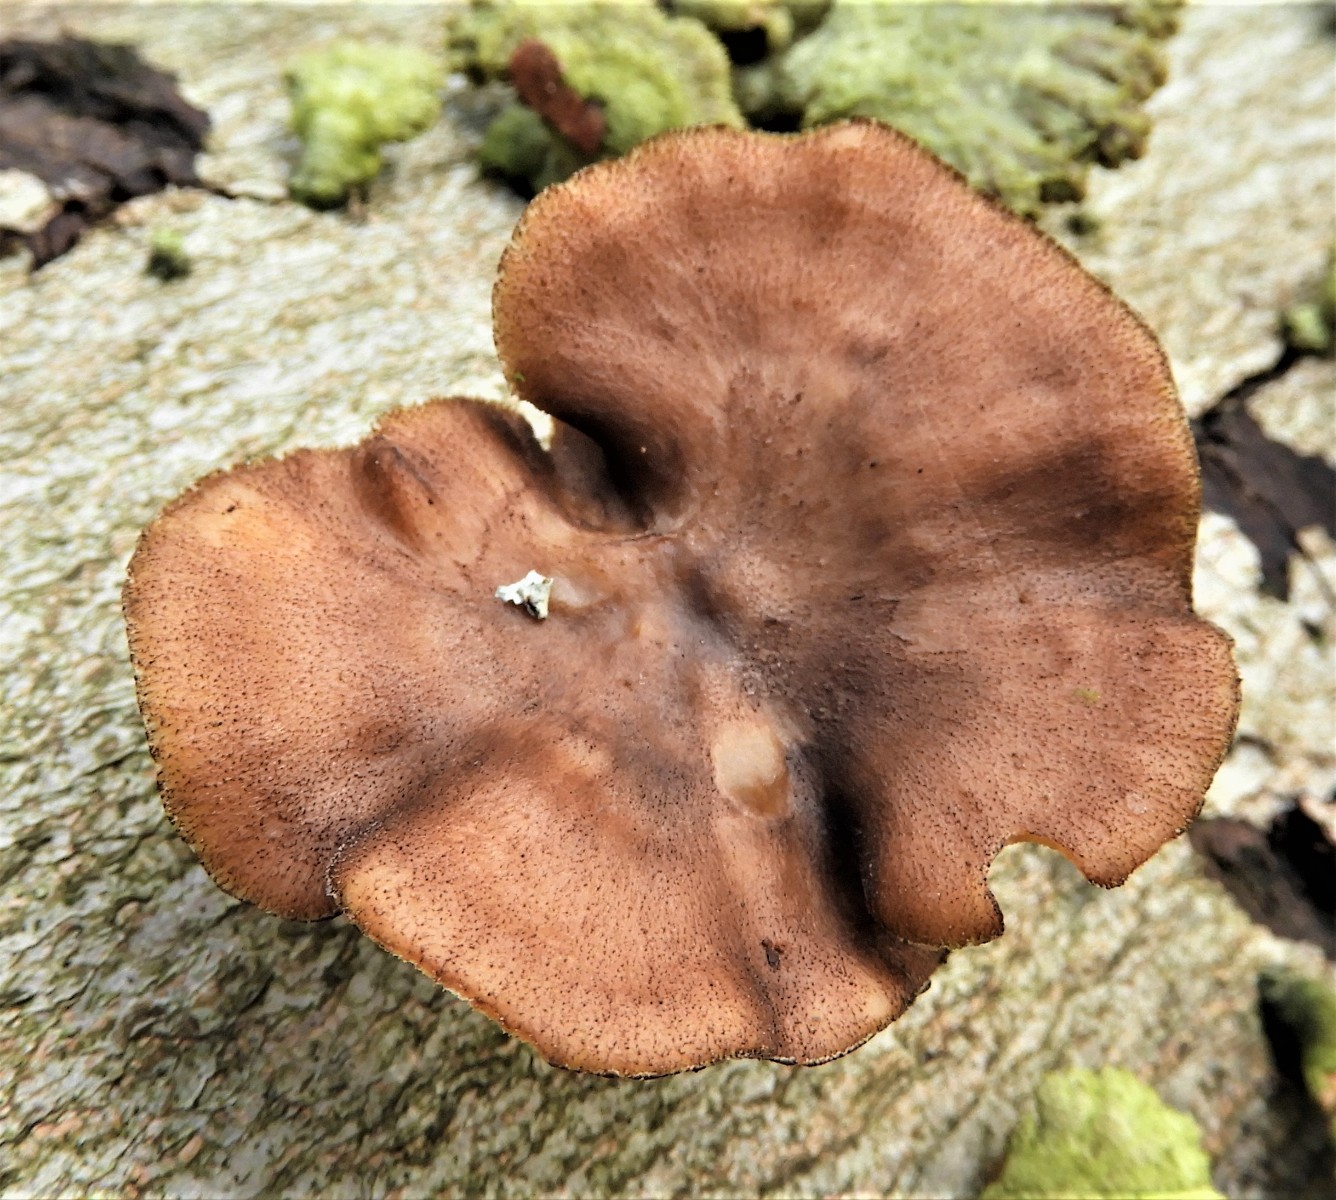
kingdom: Fungi
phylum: Basidiomycota
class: Agaricomycetes
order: Polyporales
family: Polyporaceae
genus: Lentinus
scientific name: Lentinus brumalis
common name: vinter-stilkporesvamp
